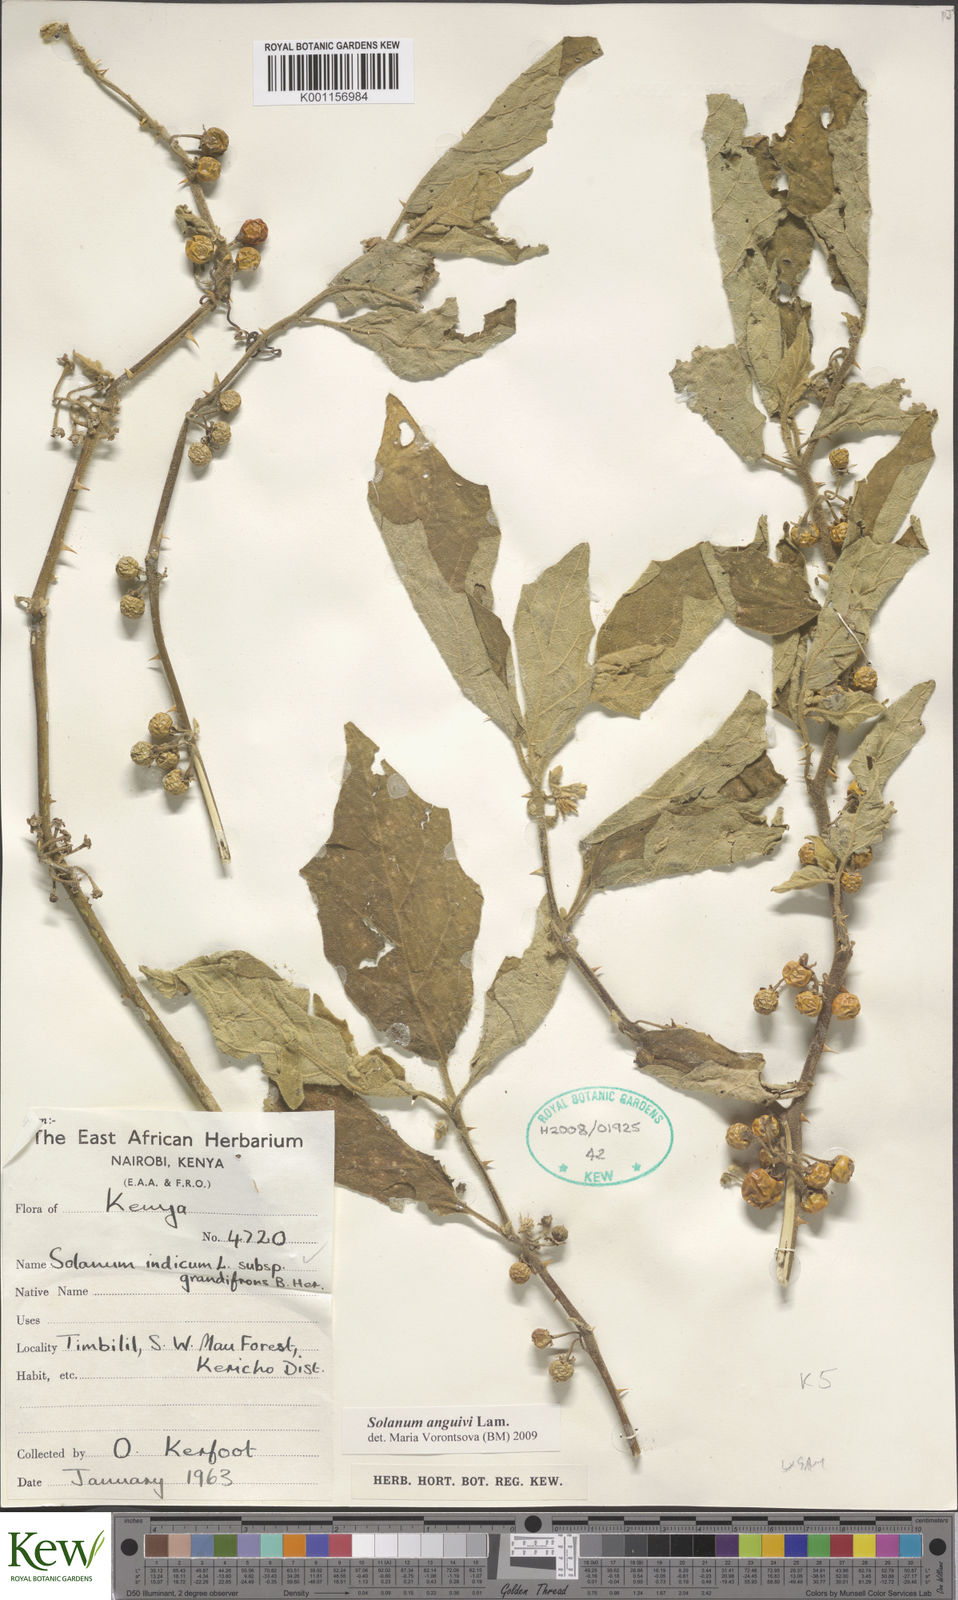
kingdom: Plantae
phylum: Tracheophyta
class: Magnoliopsida
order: Solanales
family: Solanaceae
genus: Solanum
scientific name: Solanum anguivi
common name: Forest bitterberry
